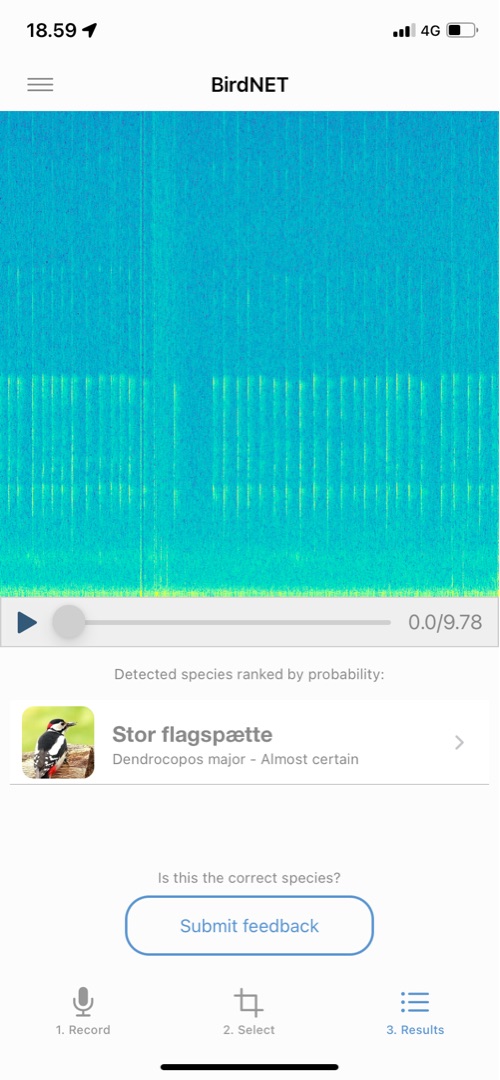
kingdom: Animalia
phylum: Chordata
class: Aves
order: Piciformes
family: Picidae
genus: Dendrocopos
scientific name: Dendrocopos major
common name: Stor flagspætte
